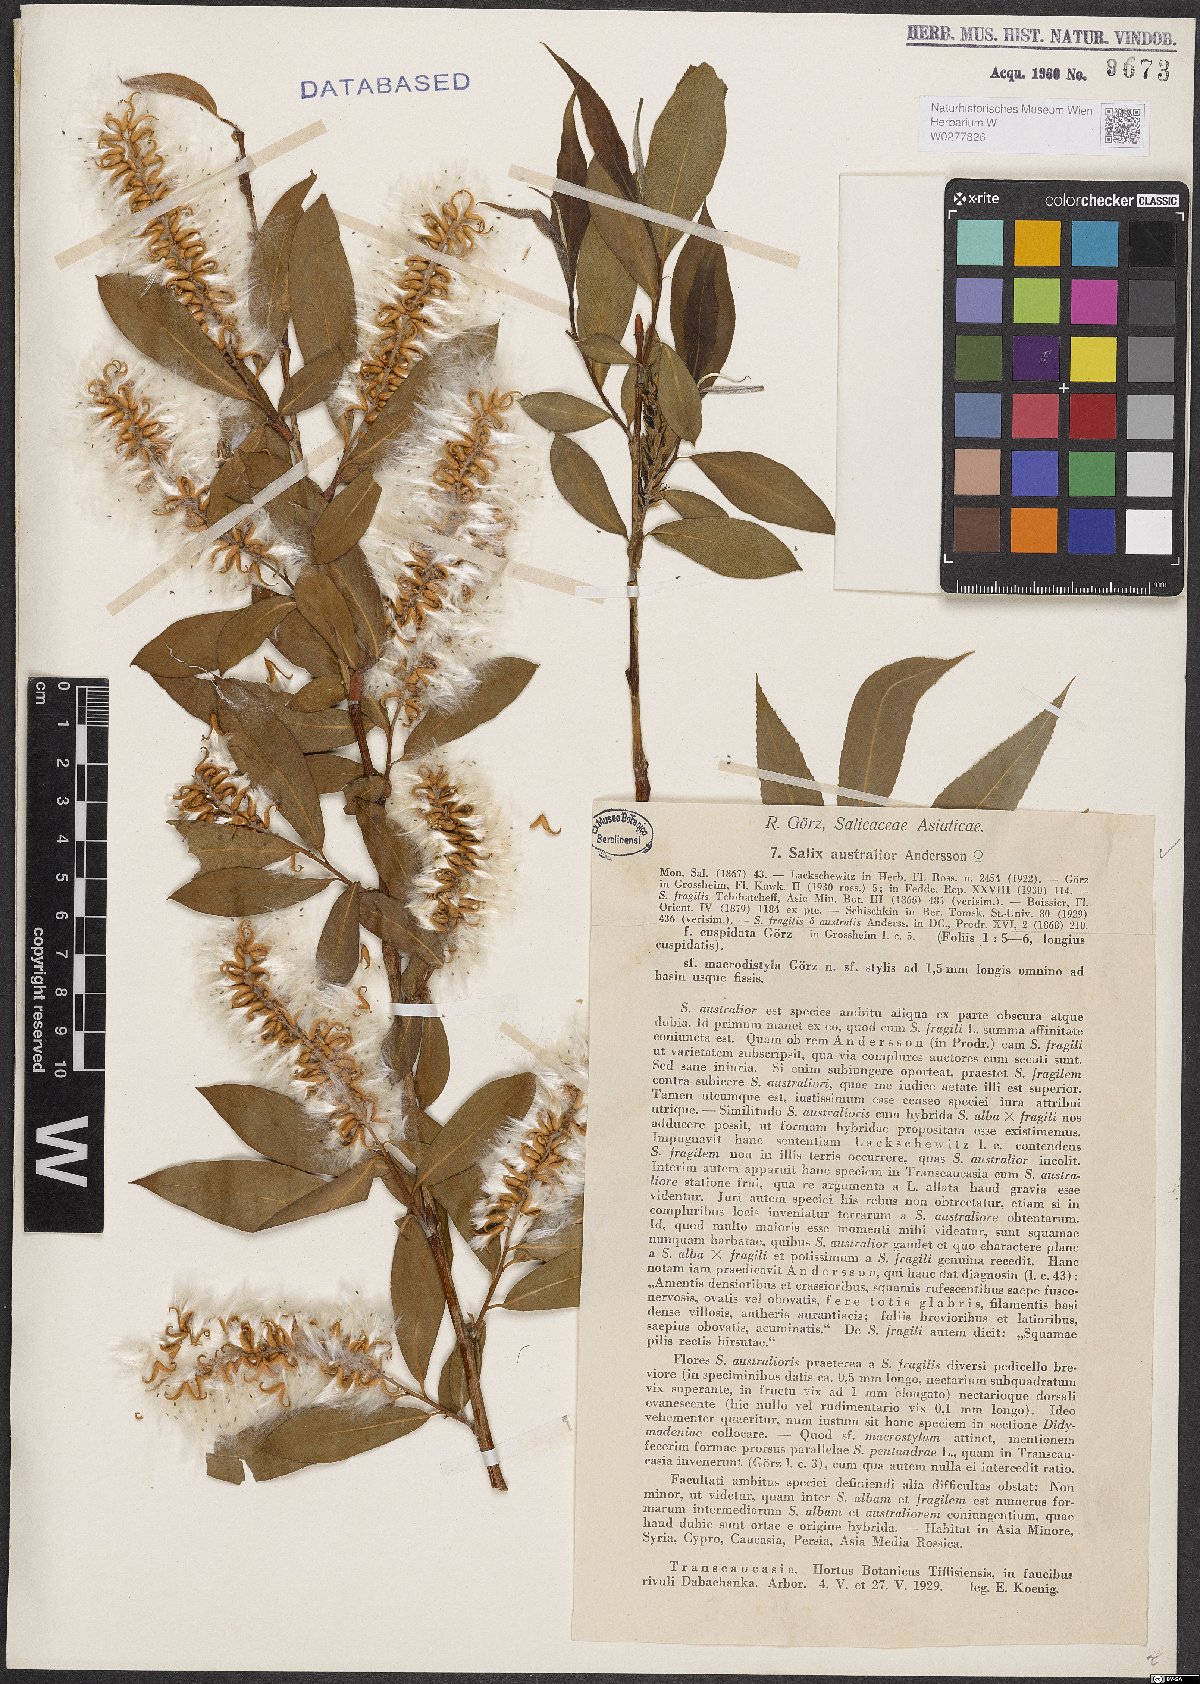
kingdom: Plantae
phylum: Tracheophyta
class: Magnoliopsida
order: Malpighiales
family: Salicaceae
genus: Salix
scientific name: Salix excelsa
